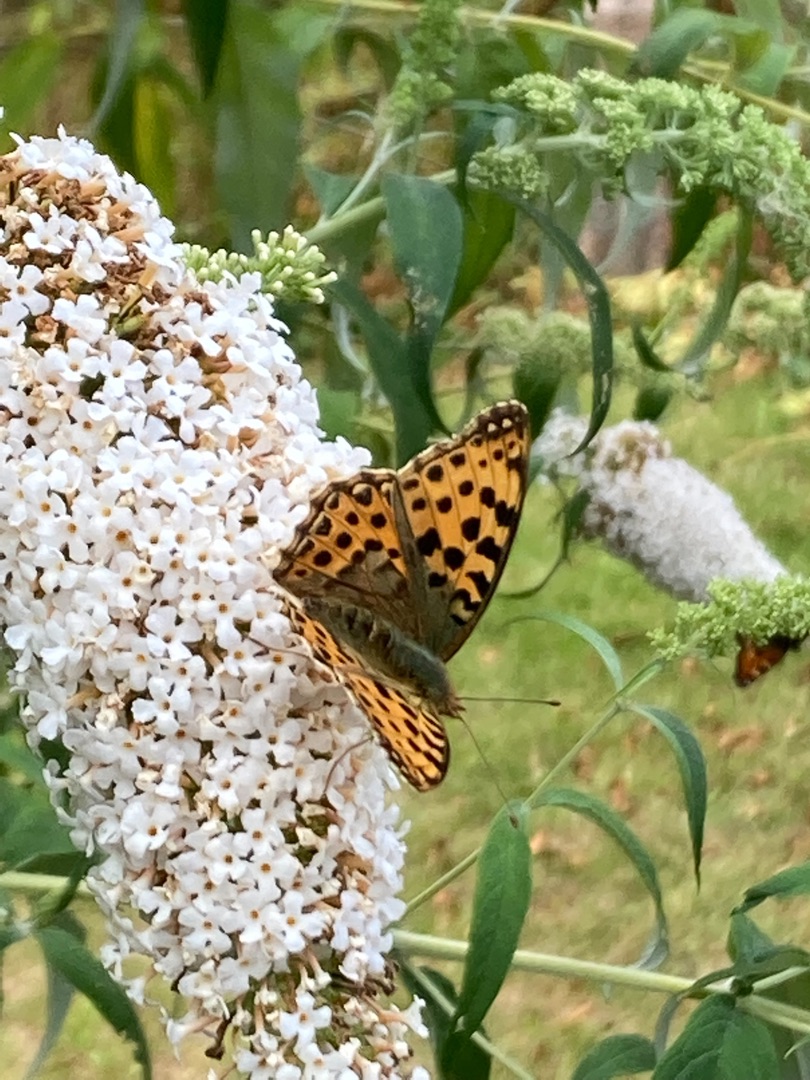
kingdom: Animalia
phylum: Arthropoda
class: Insecta
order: Lepidoptera
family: Nymphalidae
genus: Issoria
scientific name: Issoria lathonia
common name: Storplettet perlemorsommerfugl
